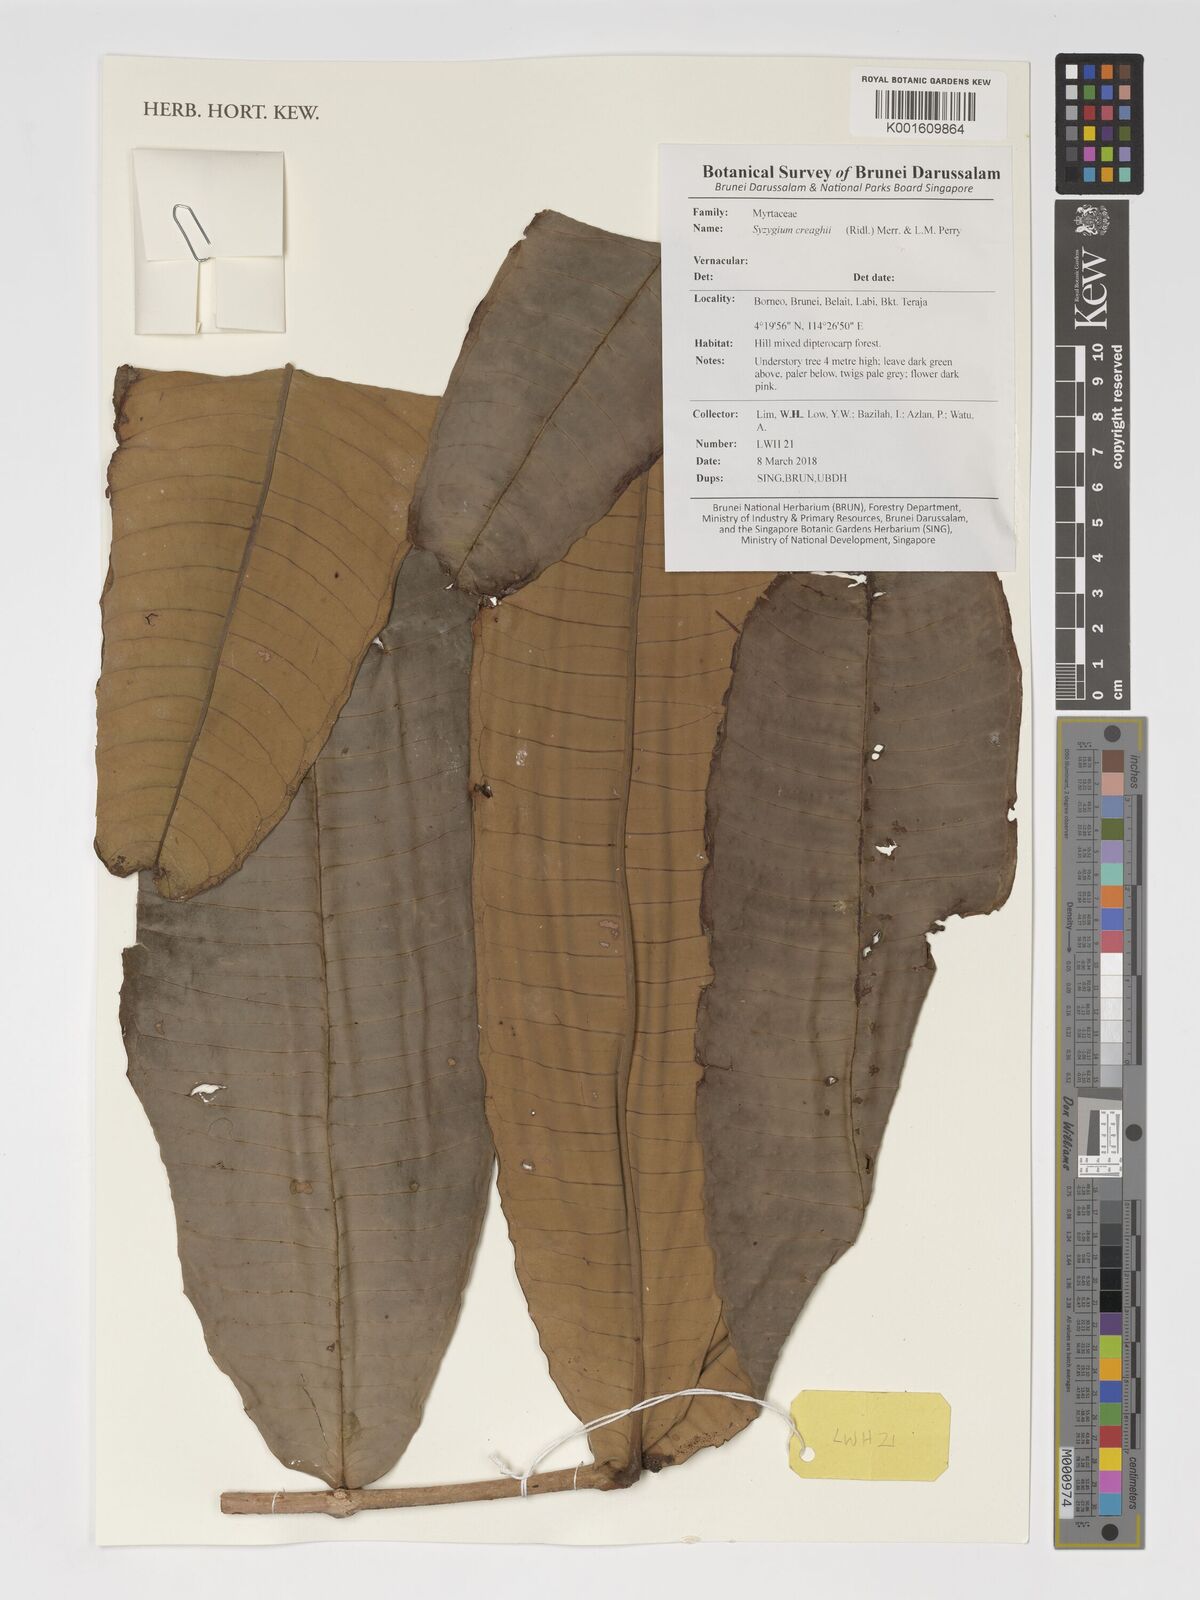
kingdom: Plantae
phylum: Tracheophyta
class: Magnoliopsida
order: Myrtales
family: Myrtaceae
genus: Syzygium
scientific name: Syzygium creaghii
